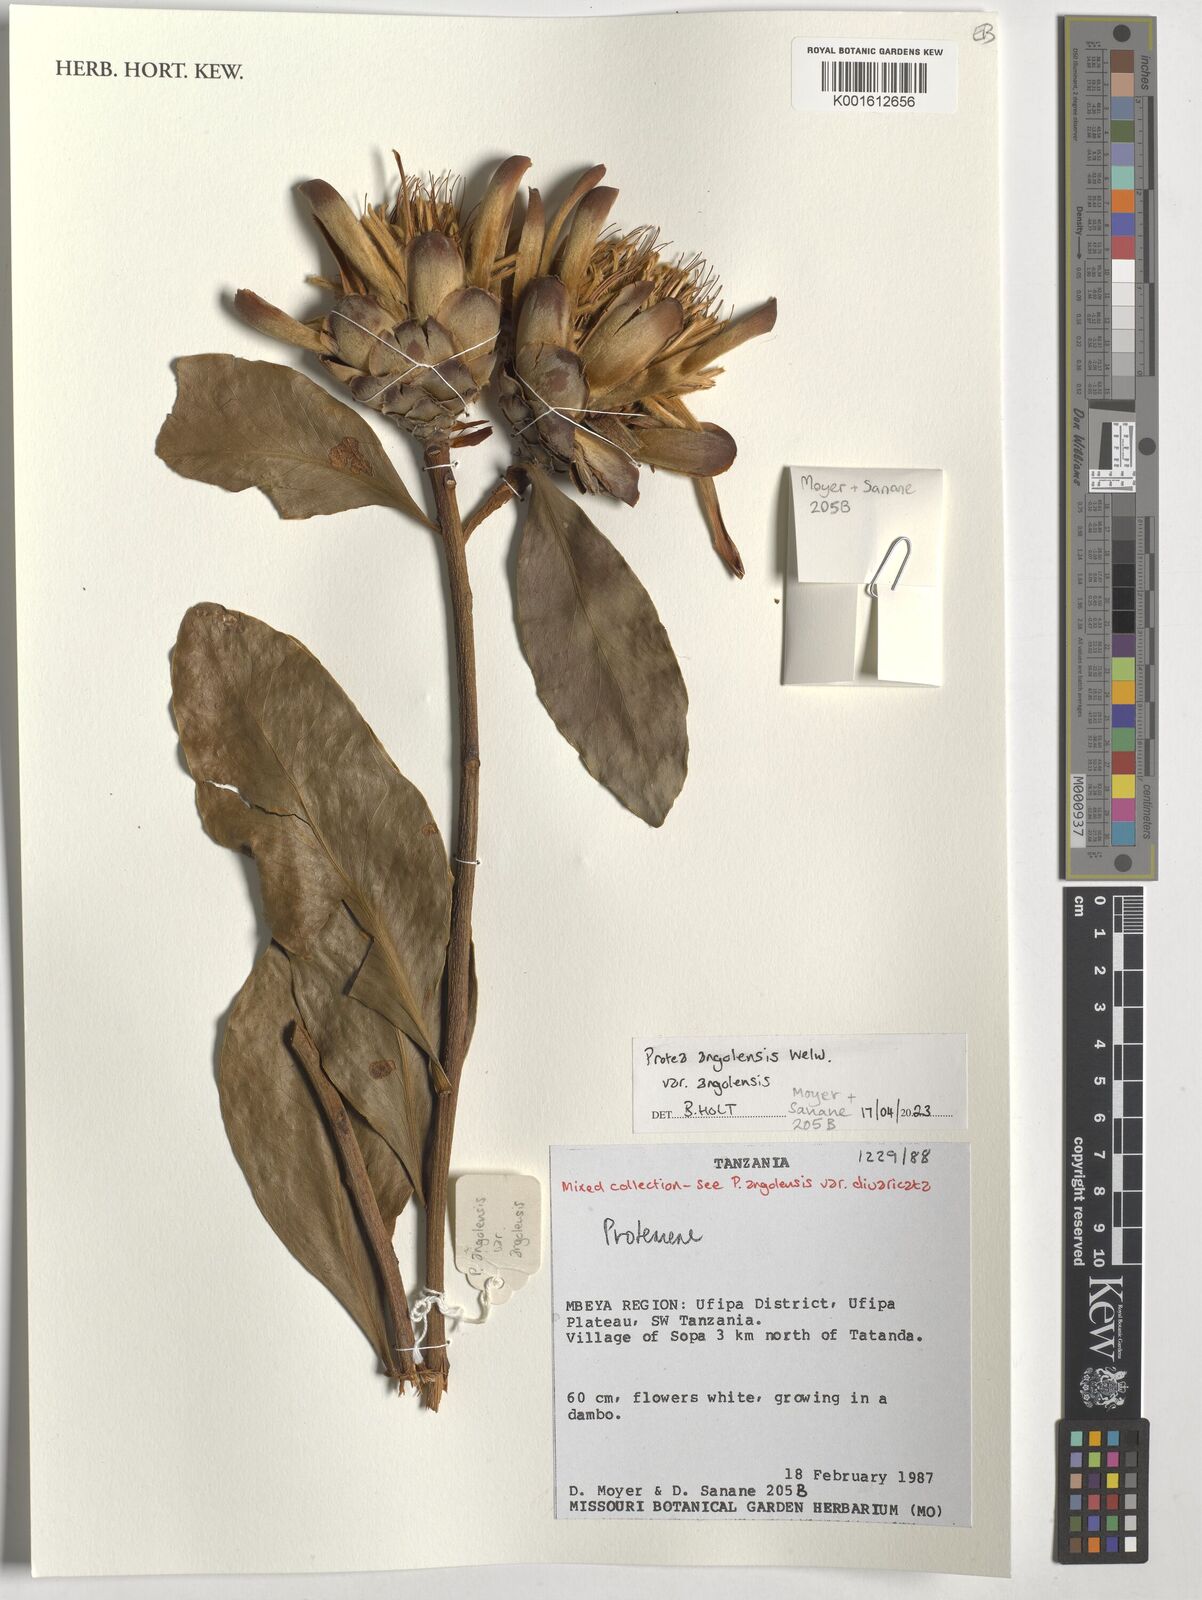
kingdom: Plantae
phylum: Tracheophyta
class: Magnoliopsida
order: Proteales
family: Proteaceae
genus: Protea
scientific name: Protea angolensis
